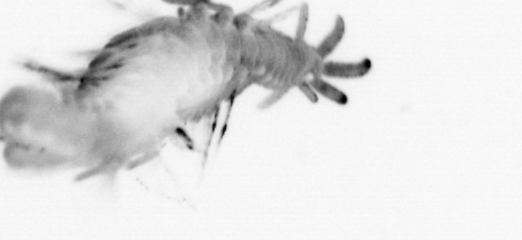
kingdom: Animalia
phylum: Annelida
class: Polychaeta
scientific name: Polychaeta
